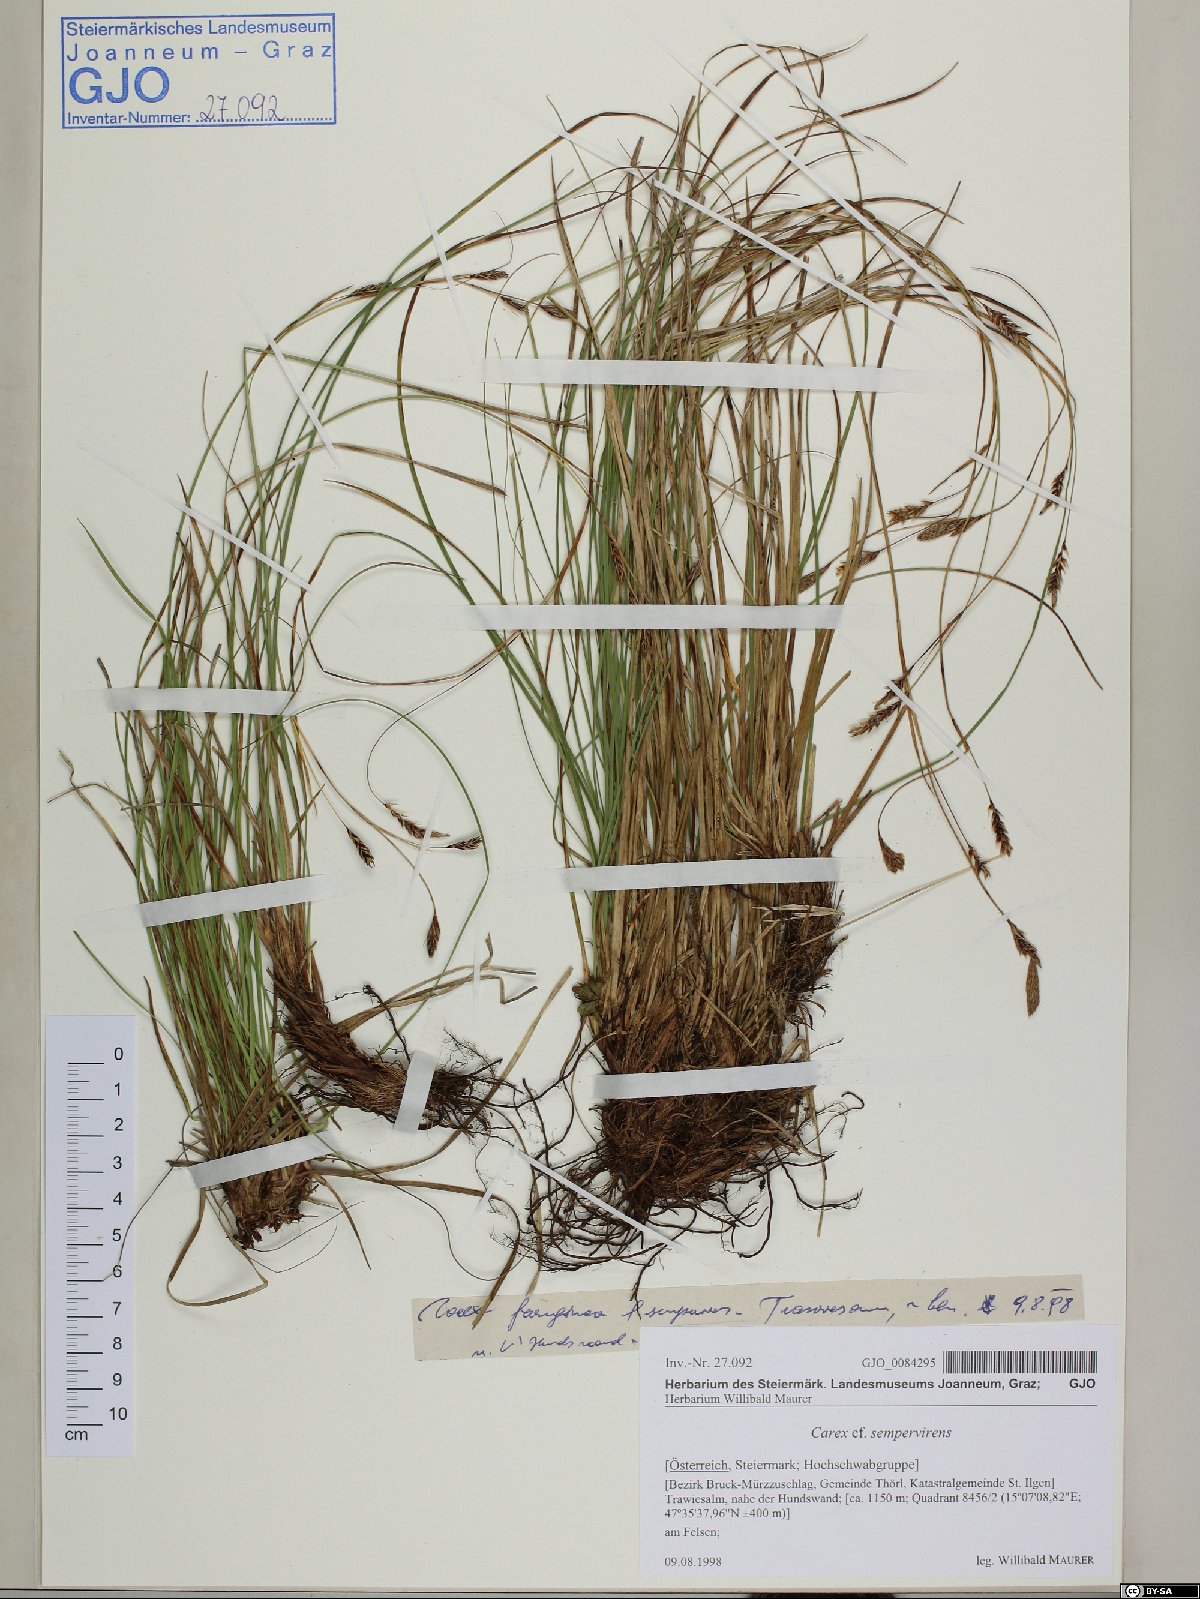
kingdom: Plantae
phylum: Tracheophyta
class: Liliopsida
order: Poales
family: Cyperaceae
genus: Carex
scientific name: Carex sempervirens
